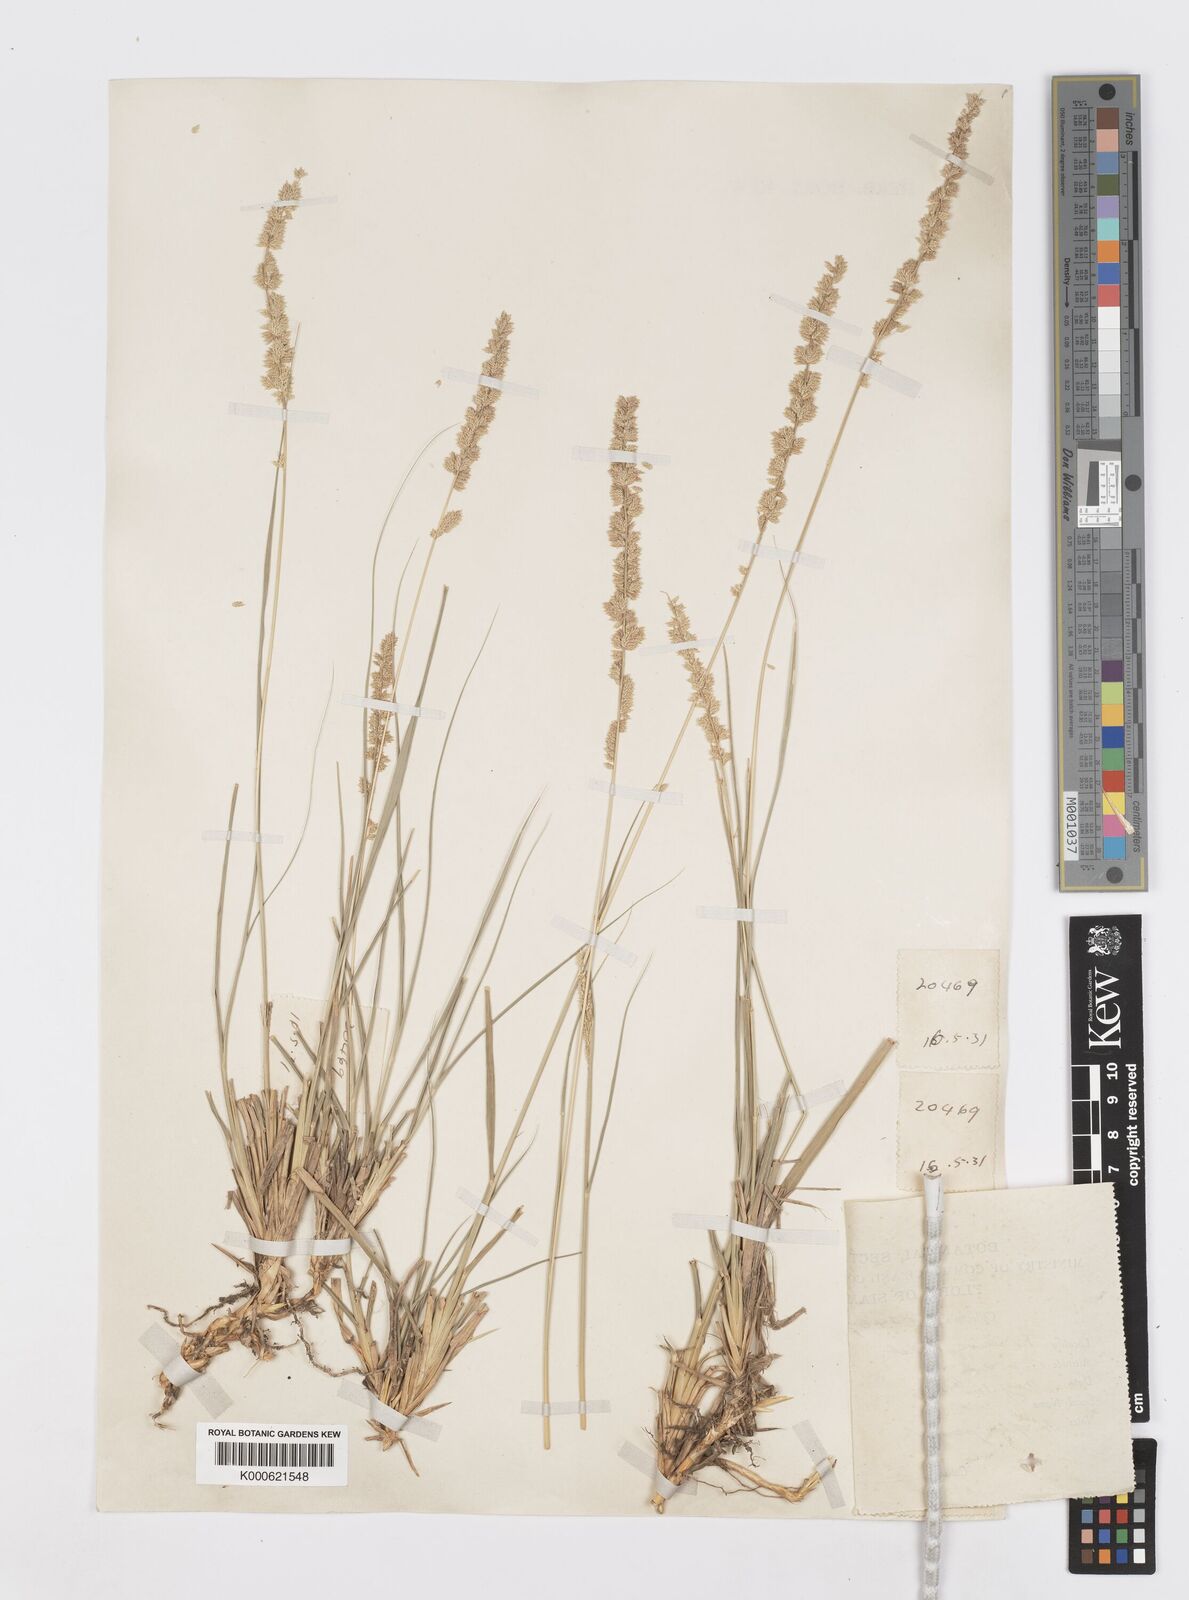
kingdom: Plantae
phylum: Tracheophyta
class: Liliopsida
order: Poales
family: Poaceae
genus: Desmostachya
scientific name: Desmostachya bipinnata
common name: Crowfoot grass
